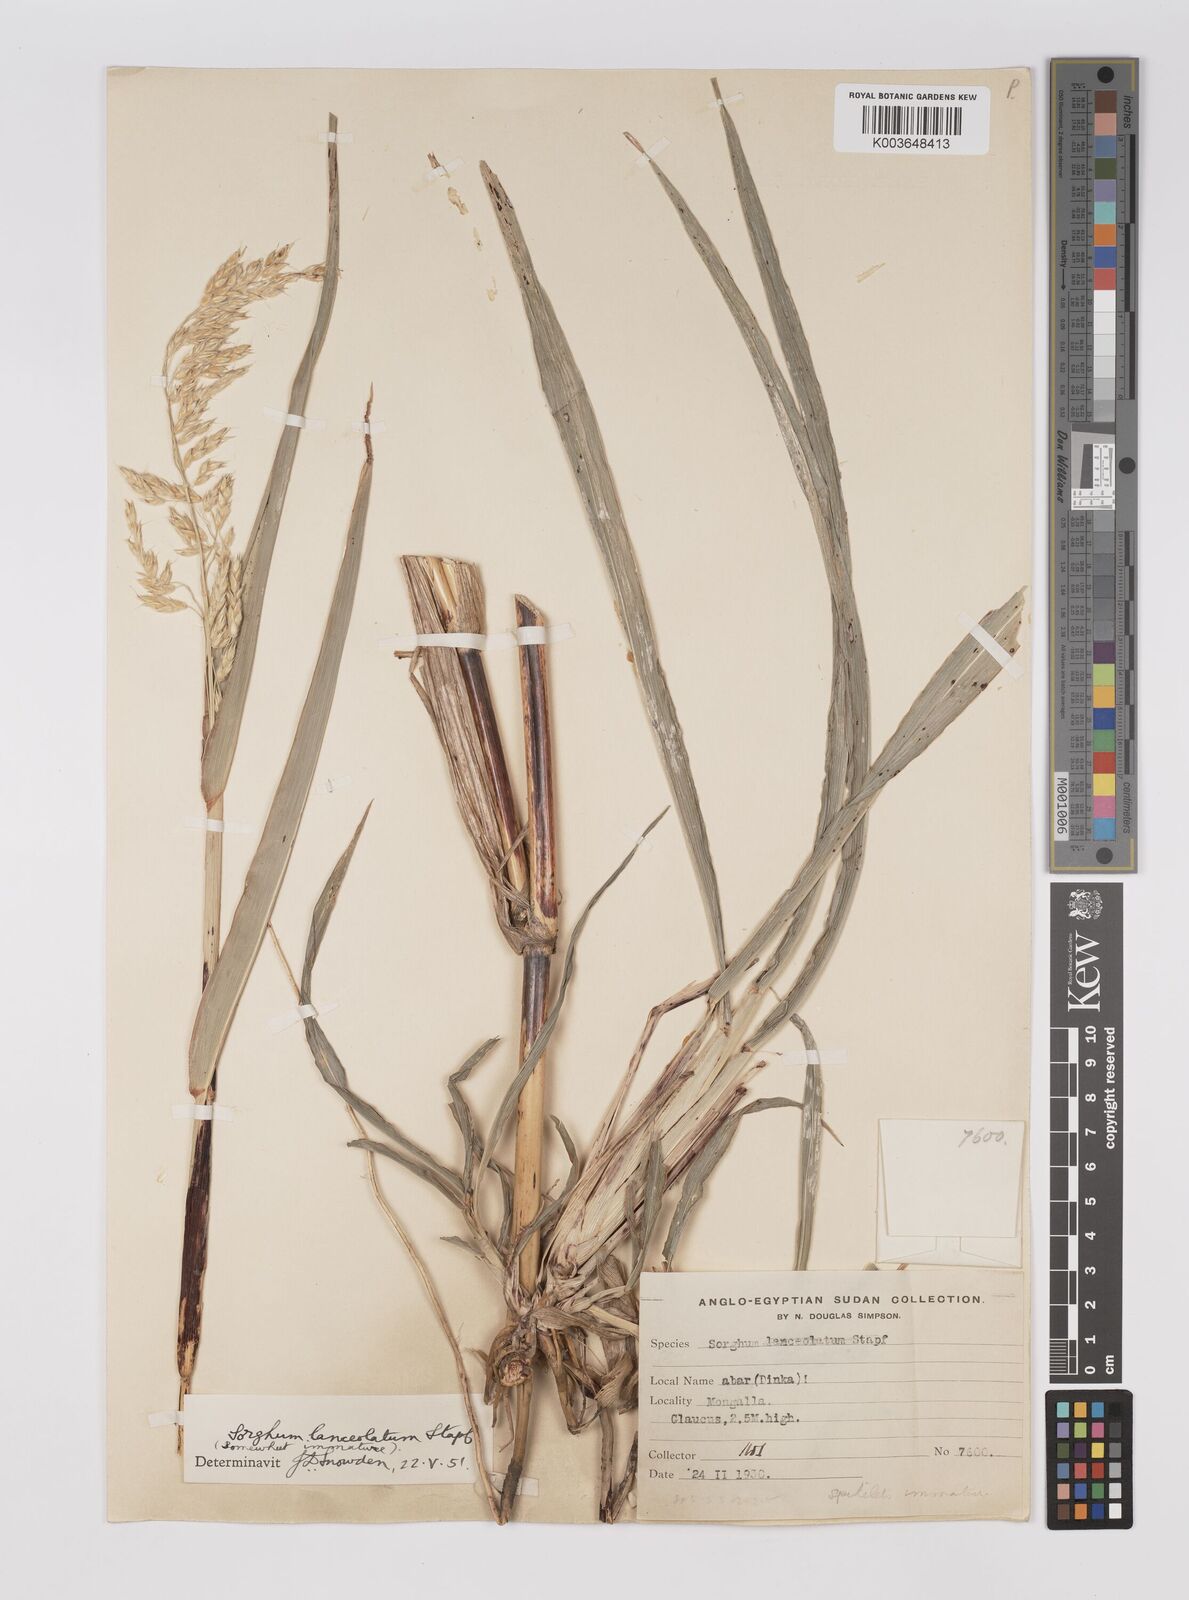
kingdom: Plantae
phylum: Tracheophyta
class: Liliopsida
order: Poales
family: Poaceae
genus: Sorghum
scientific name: Sorghum arundinaceum
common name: Sorghum
